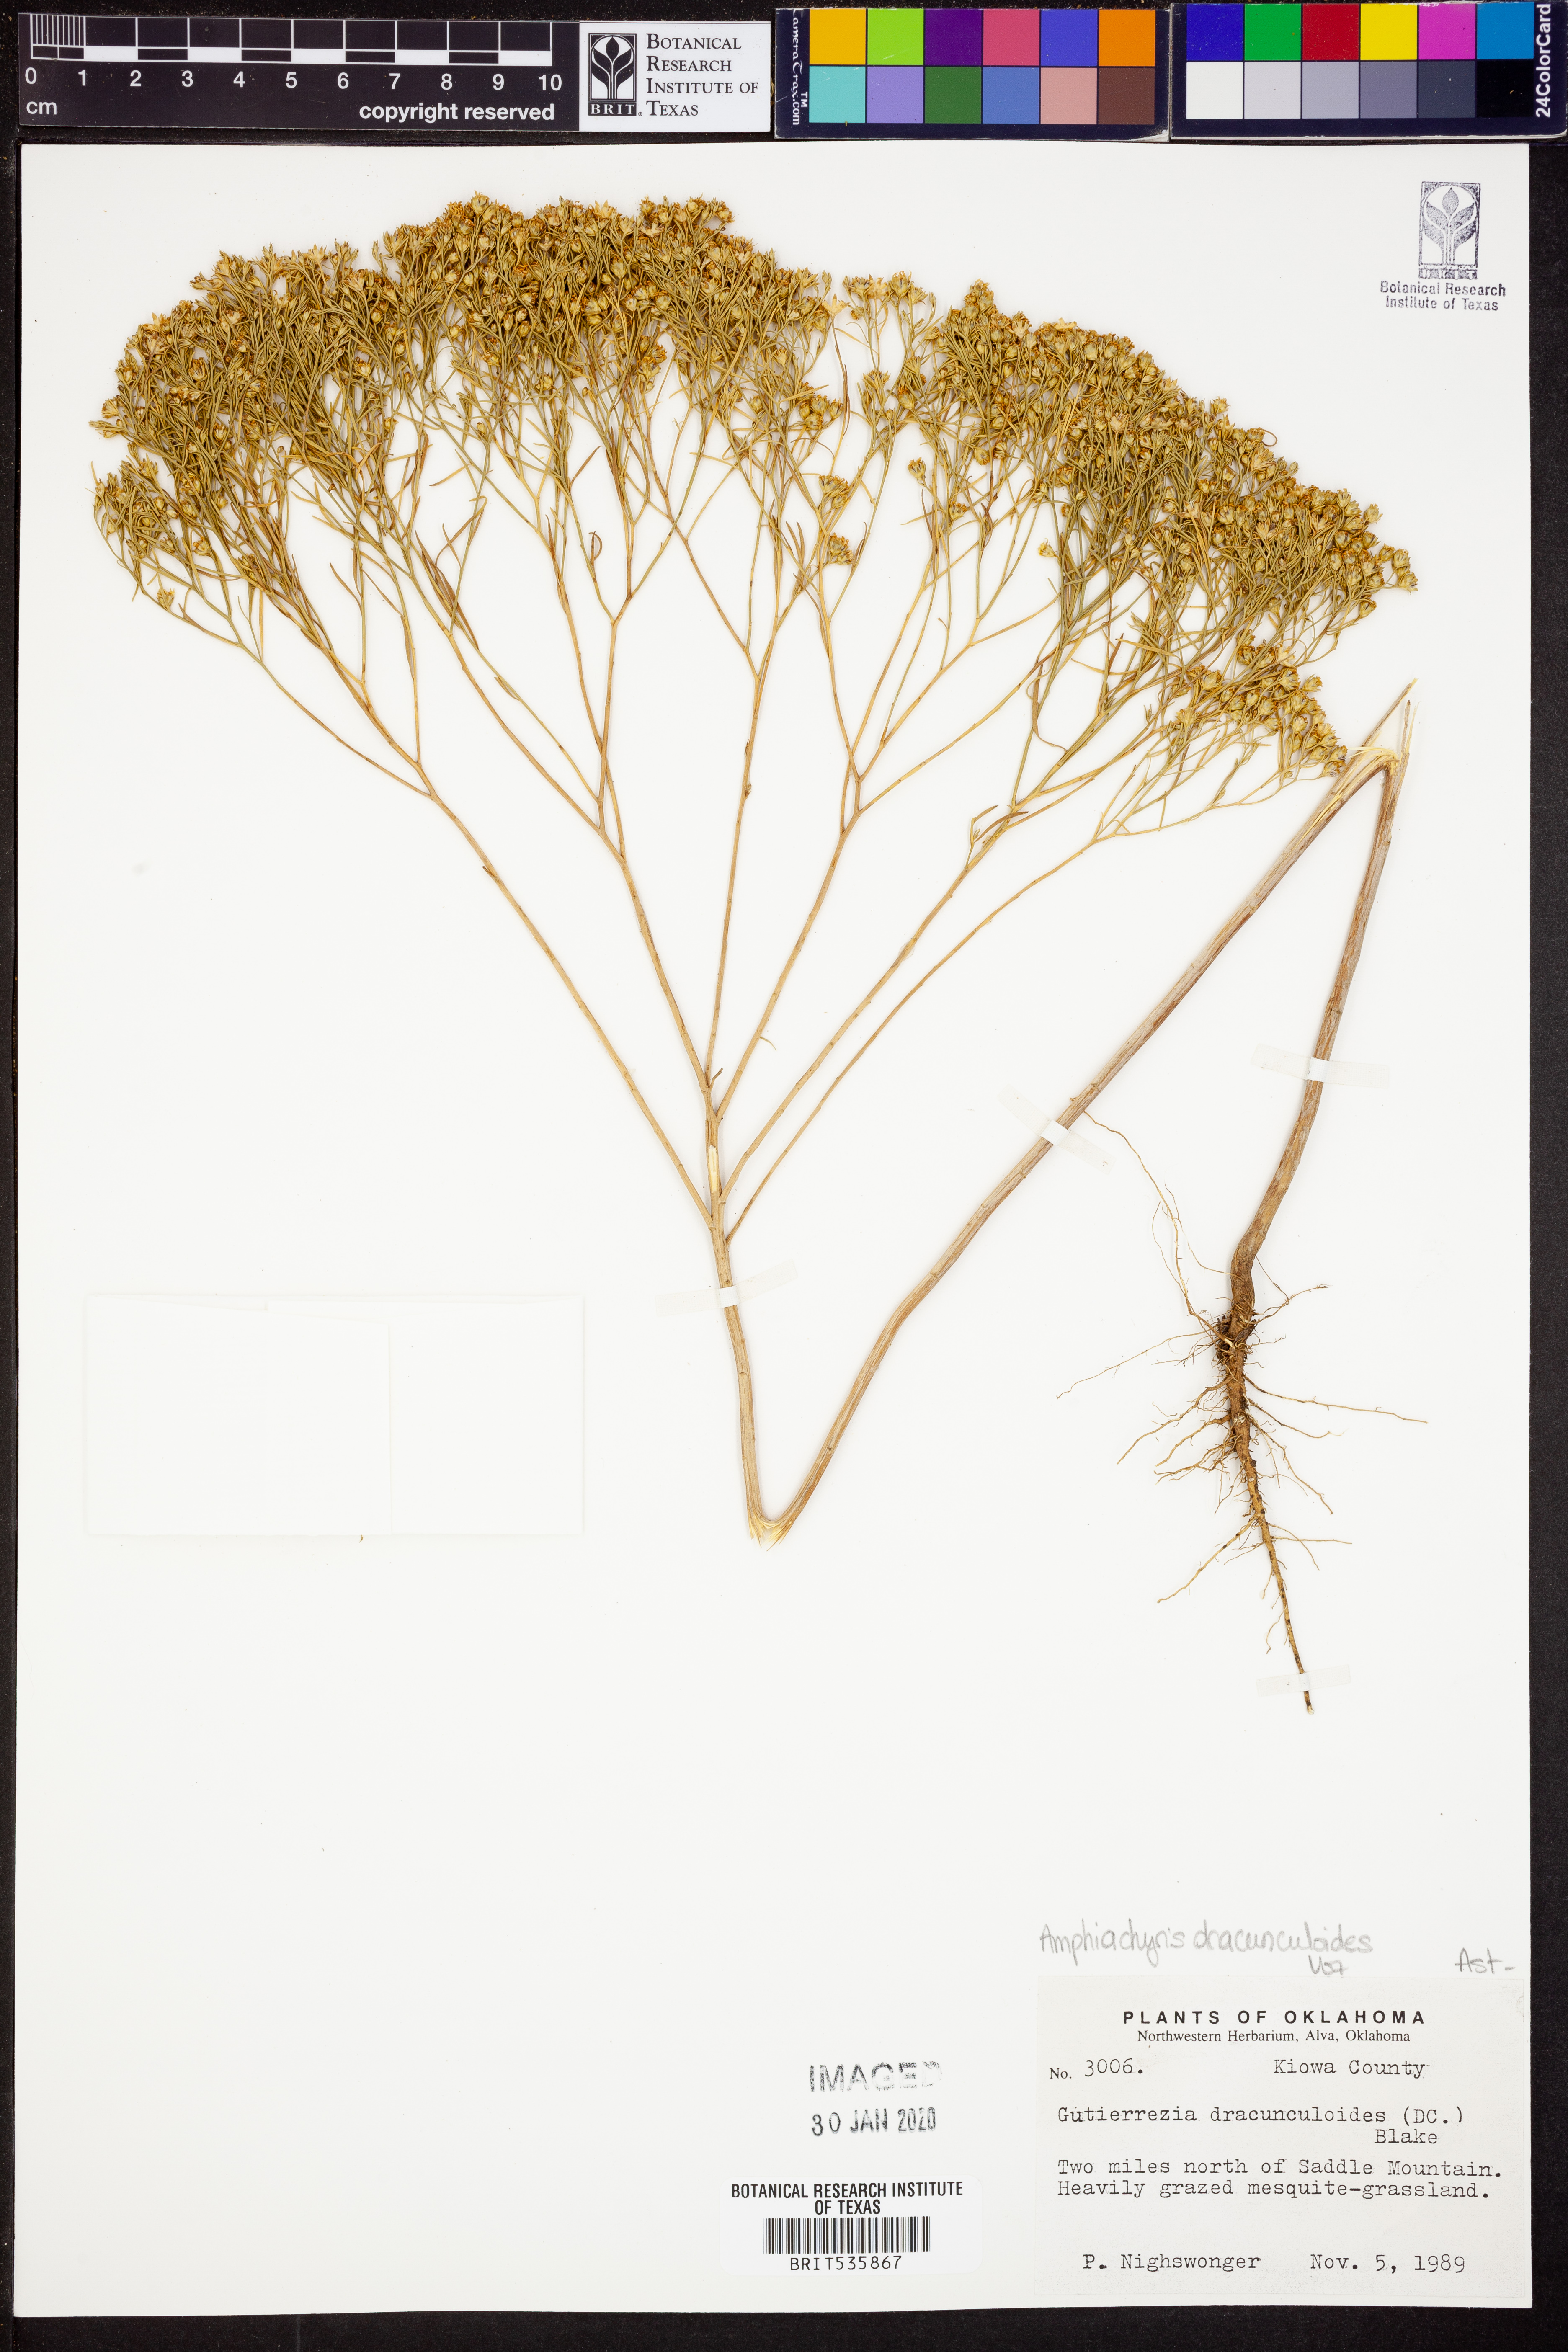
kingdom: Plantae
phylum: Tracheophyta
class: Magnoliopsida
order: Asterales
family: Asteraceae
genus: Amphiachyris
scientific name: Amphiachyris dracunculoides
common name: Broomweed
